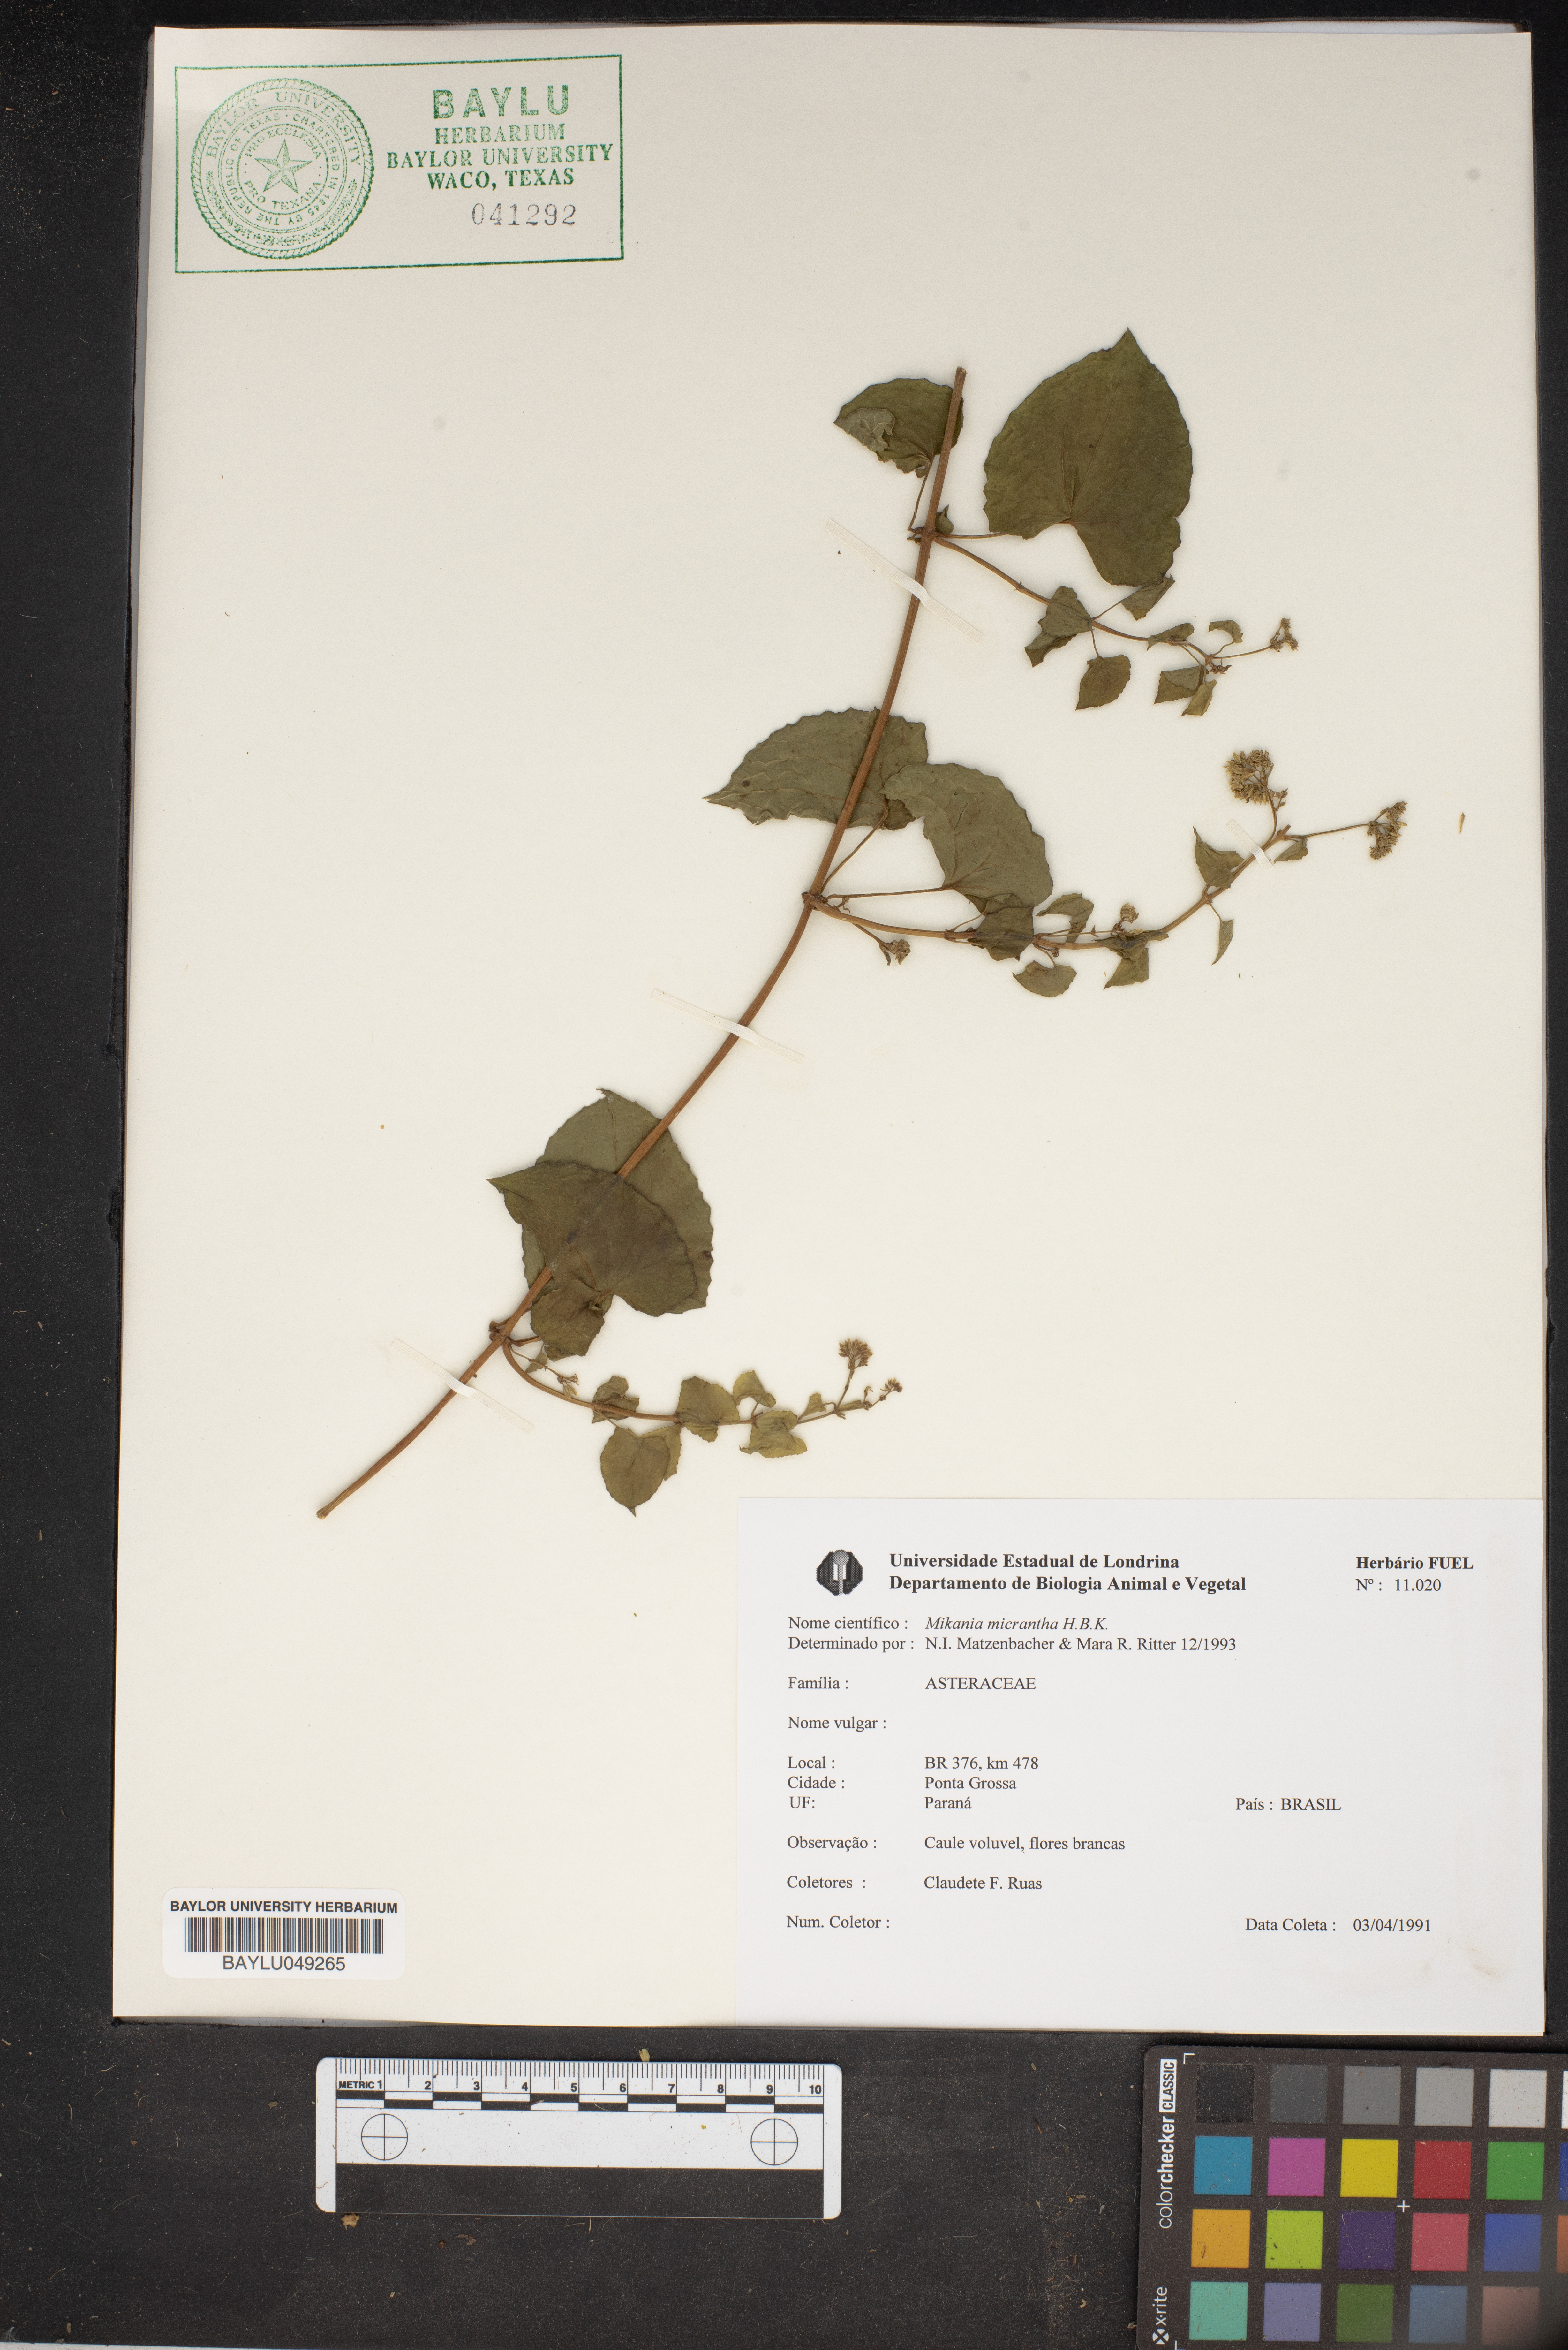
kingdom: Plantae
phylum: Tracheophyta
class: Magnoliopsida
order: Asterales
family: Asteraceae
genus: Mikania
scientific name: Mikania micrantha
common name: Mile-a-minute
